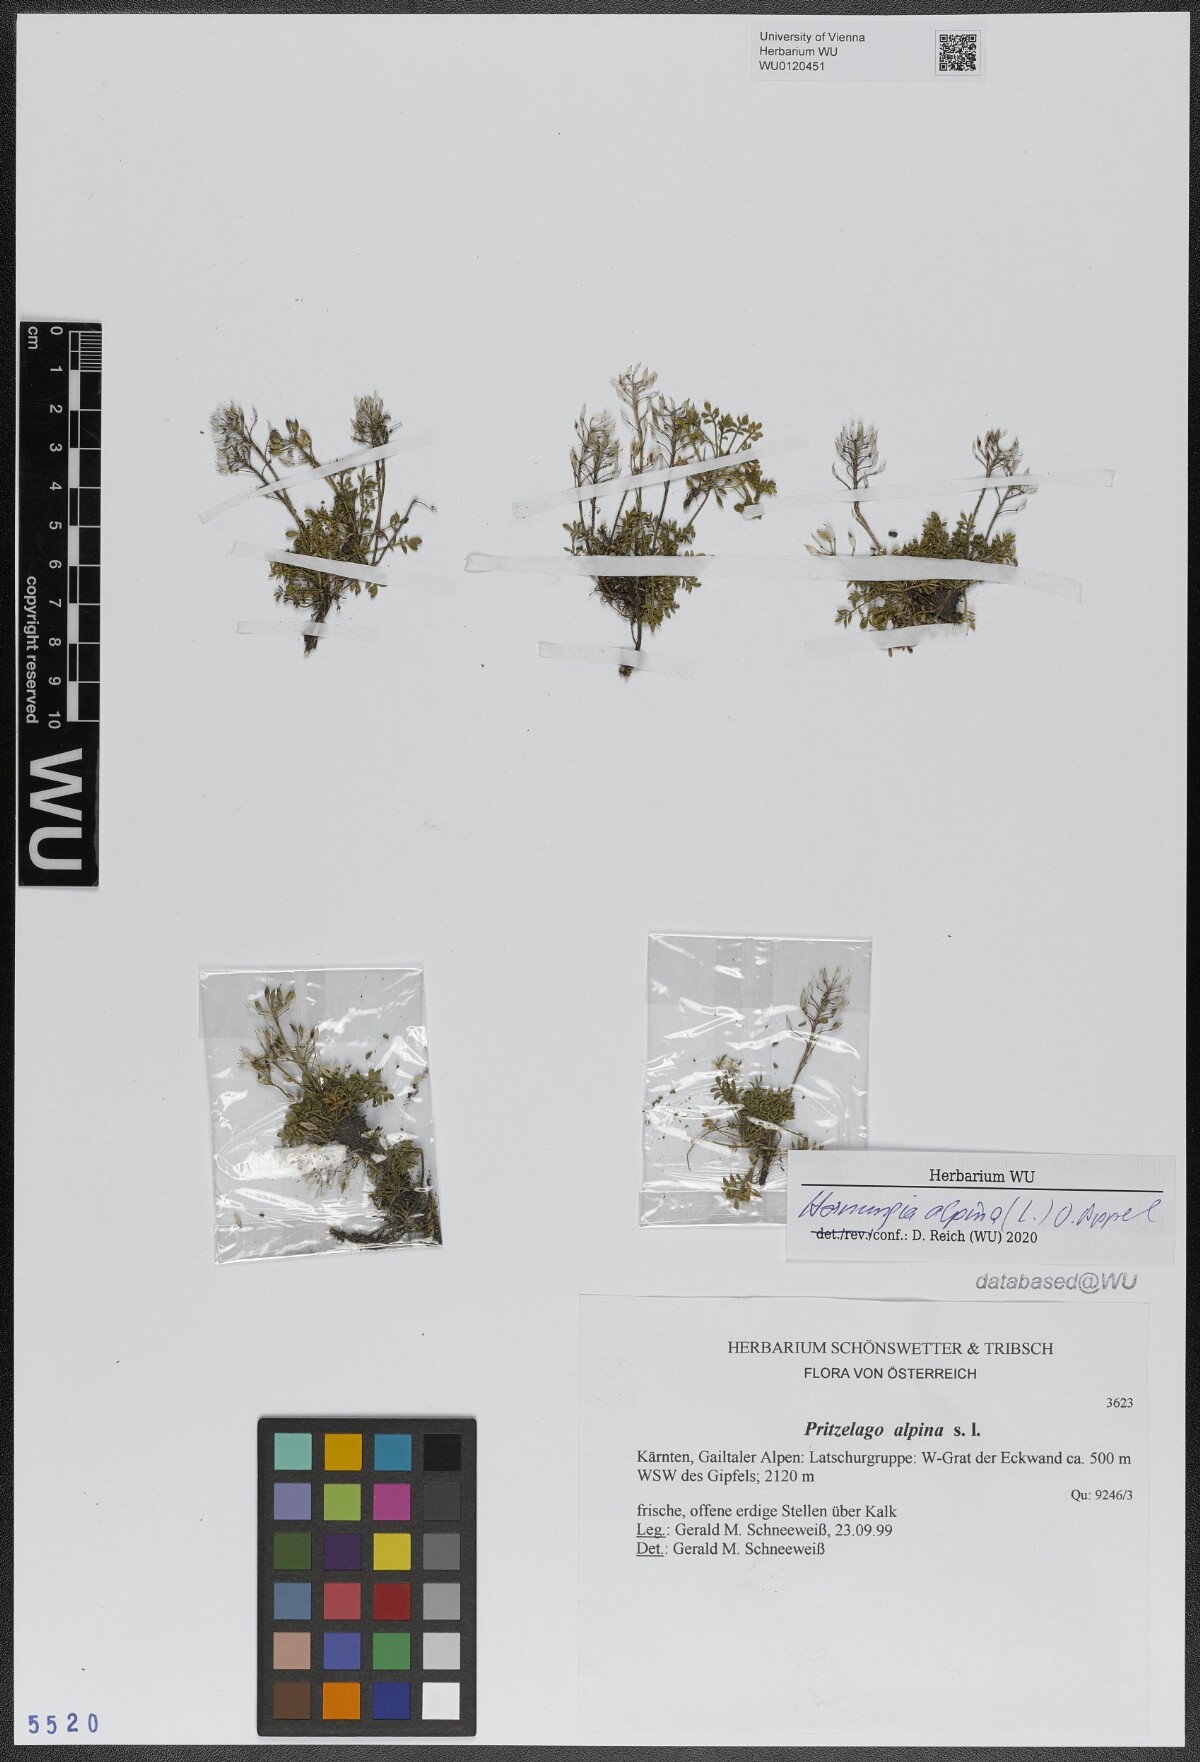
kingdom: Plantae
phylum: Tracheophyta
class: Magnoliopsida
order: Brassicales
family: Brassicaceae
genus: Hornungia
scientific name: Hornungia alpina
